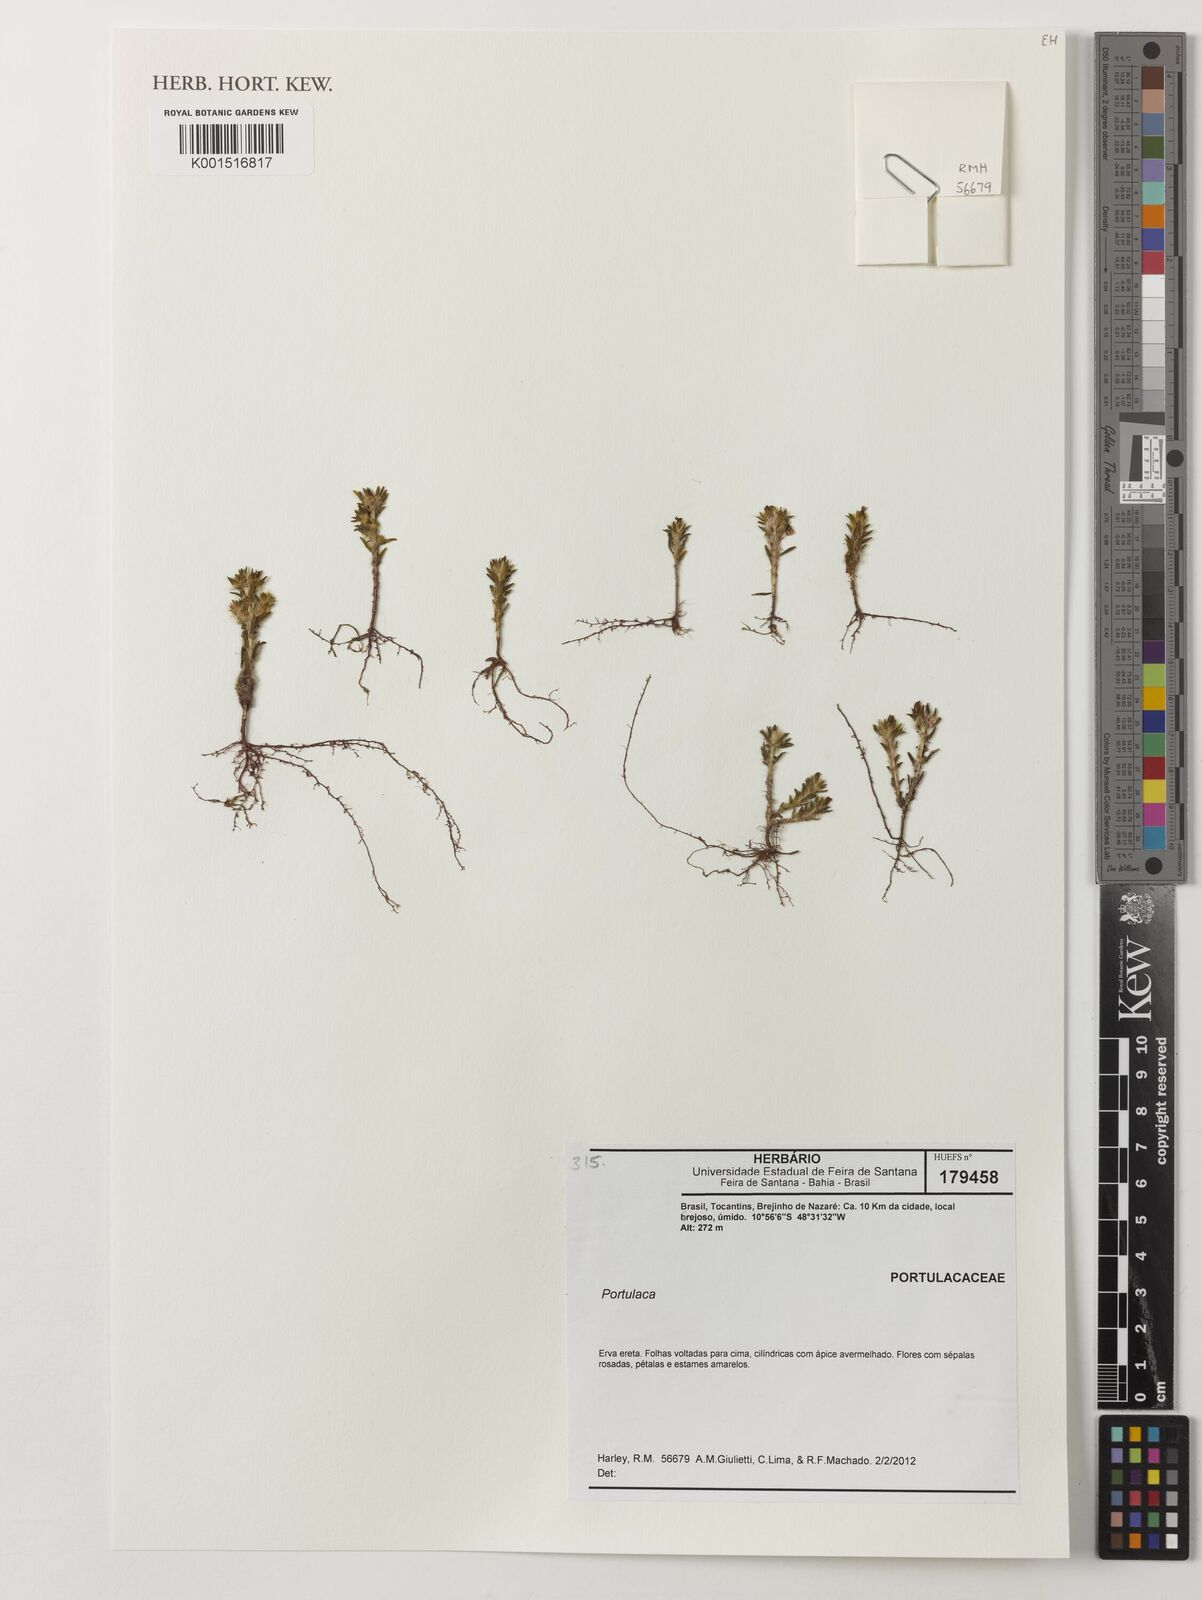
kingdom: Plantae
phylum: Tracheophyta
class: Magnoliopsida
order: Caryophyllales
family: Portulacaceae
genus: Portulaca
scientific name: Portulaca
